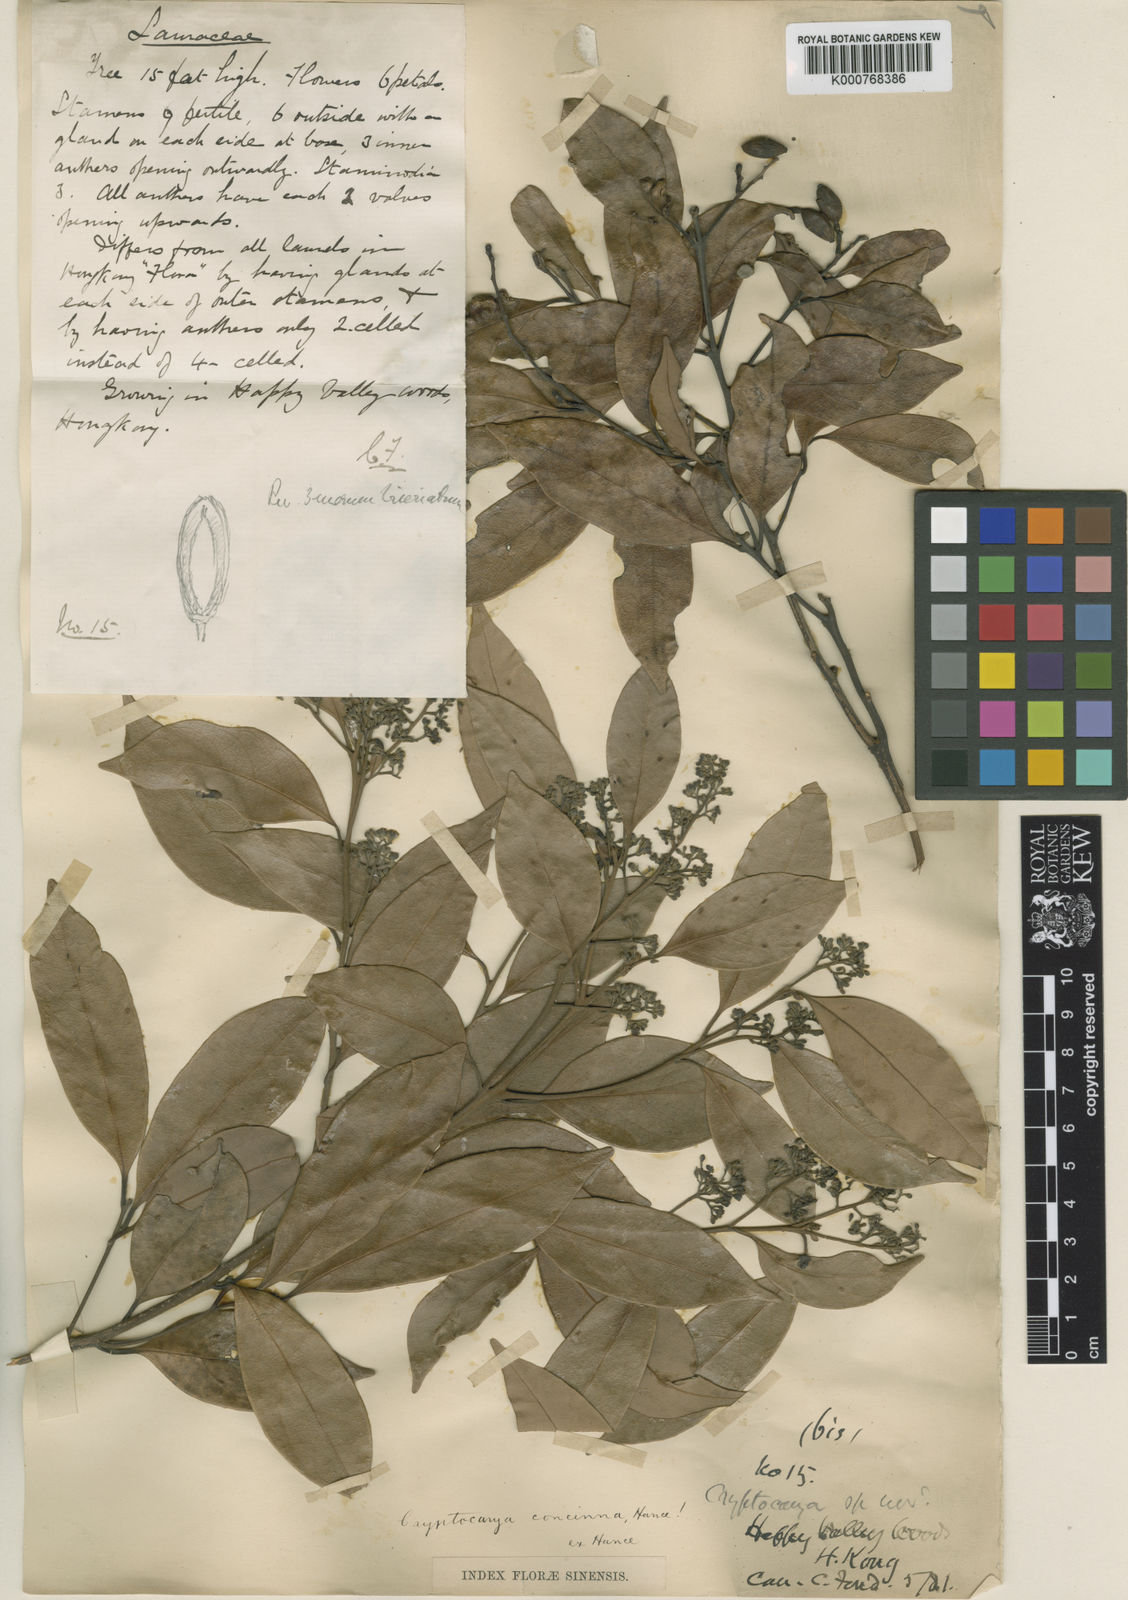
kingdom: Plantae
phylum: Tracheophyta
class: Magnoliopsida
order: Laurales
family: Lauraceae
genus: Cryptocarya
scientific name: Cryptocarya concinna
